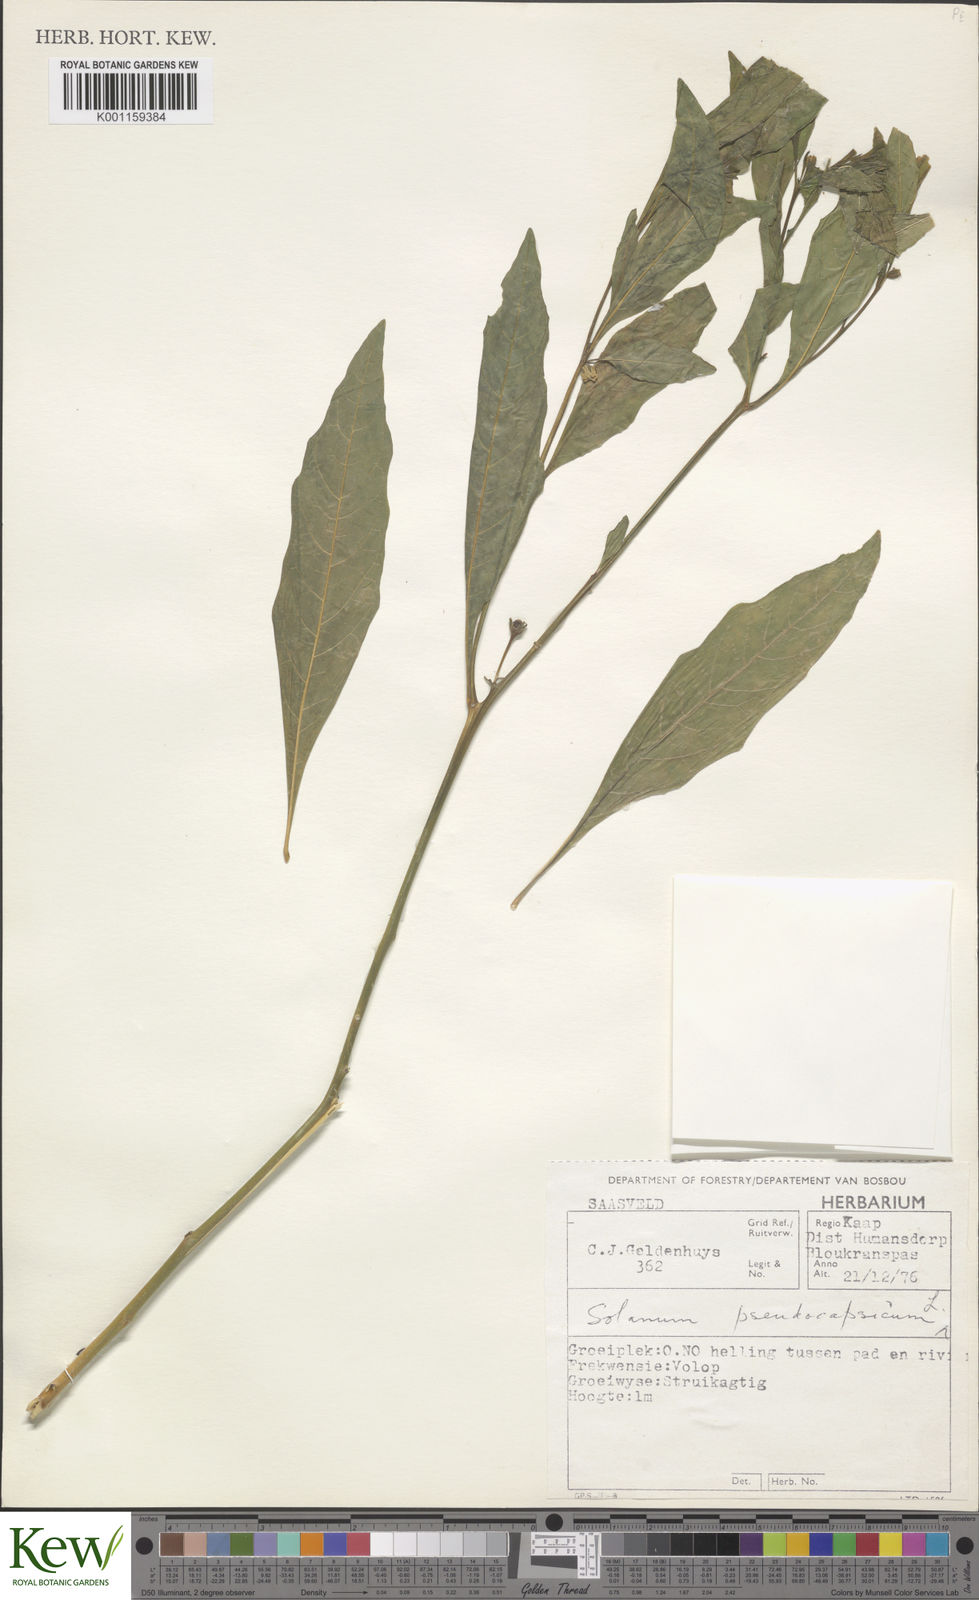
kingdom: Plantae
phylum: Tracheophyta
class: Magnoliopsida
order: Solanales
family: Solanaceae
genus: Solanum
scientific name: Solanum pseudocapsicum
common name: Jerusalem cherry
